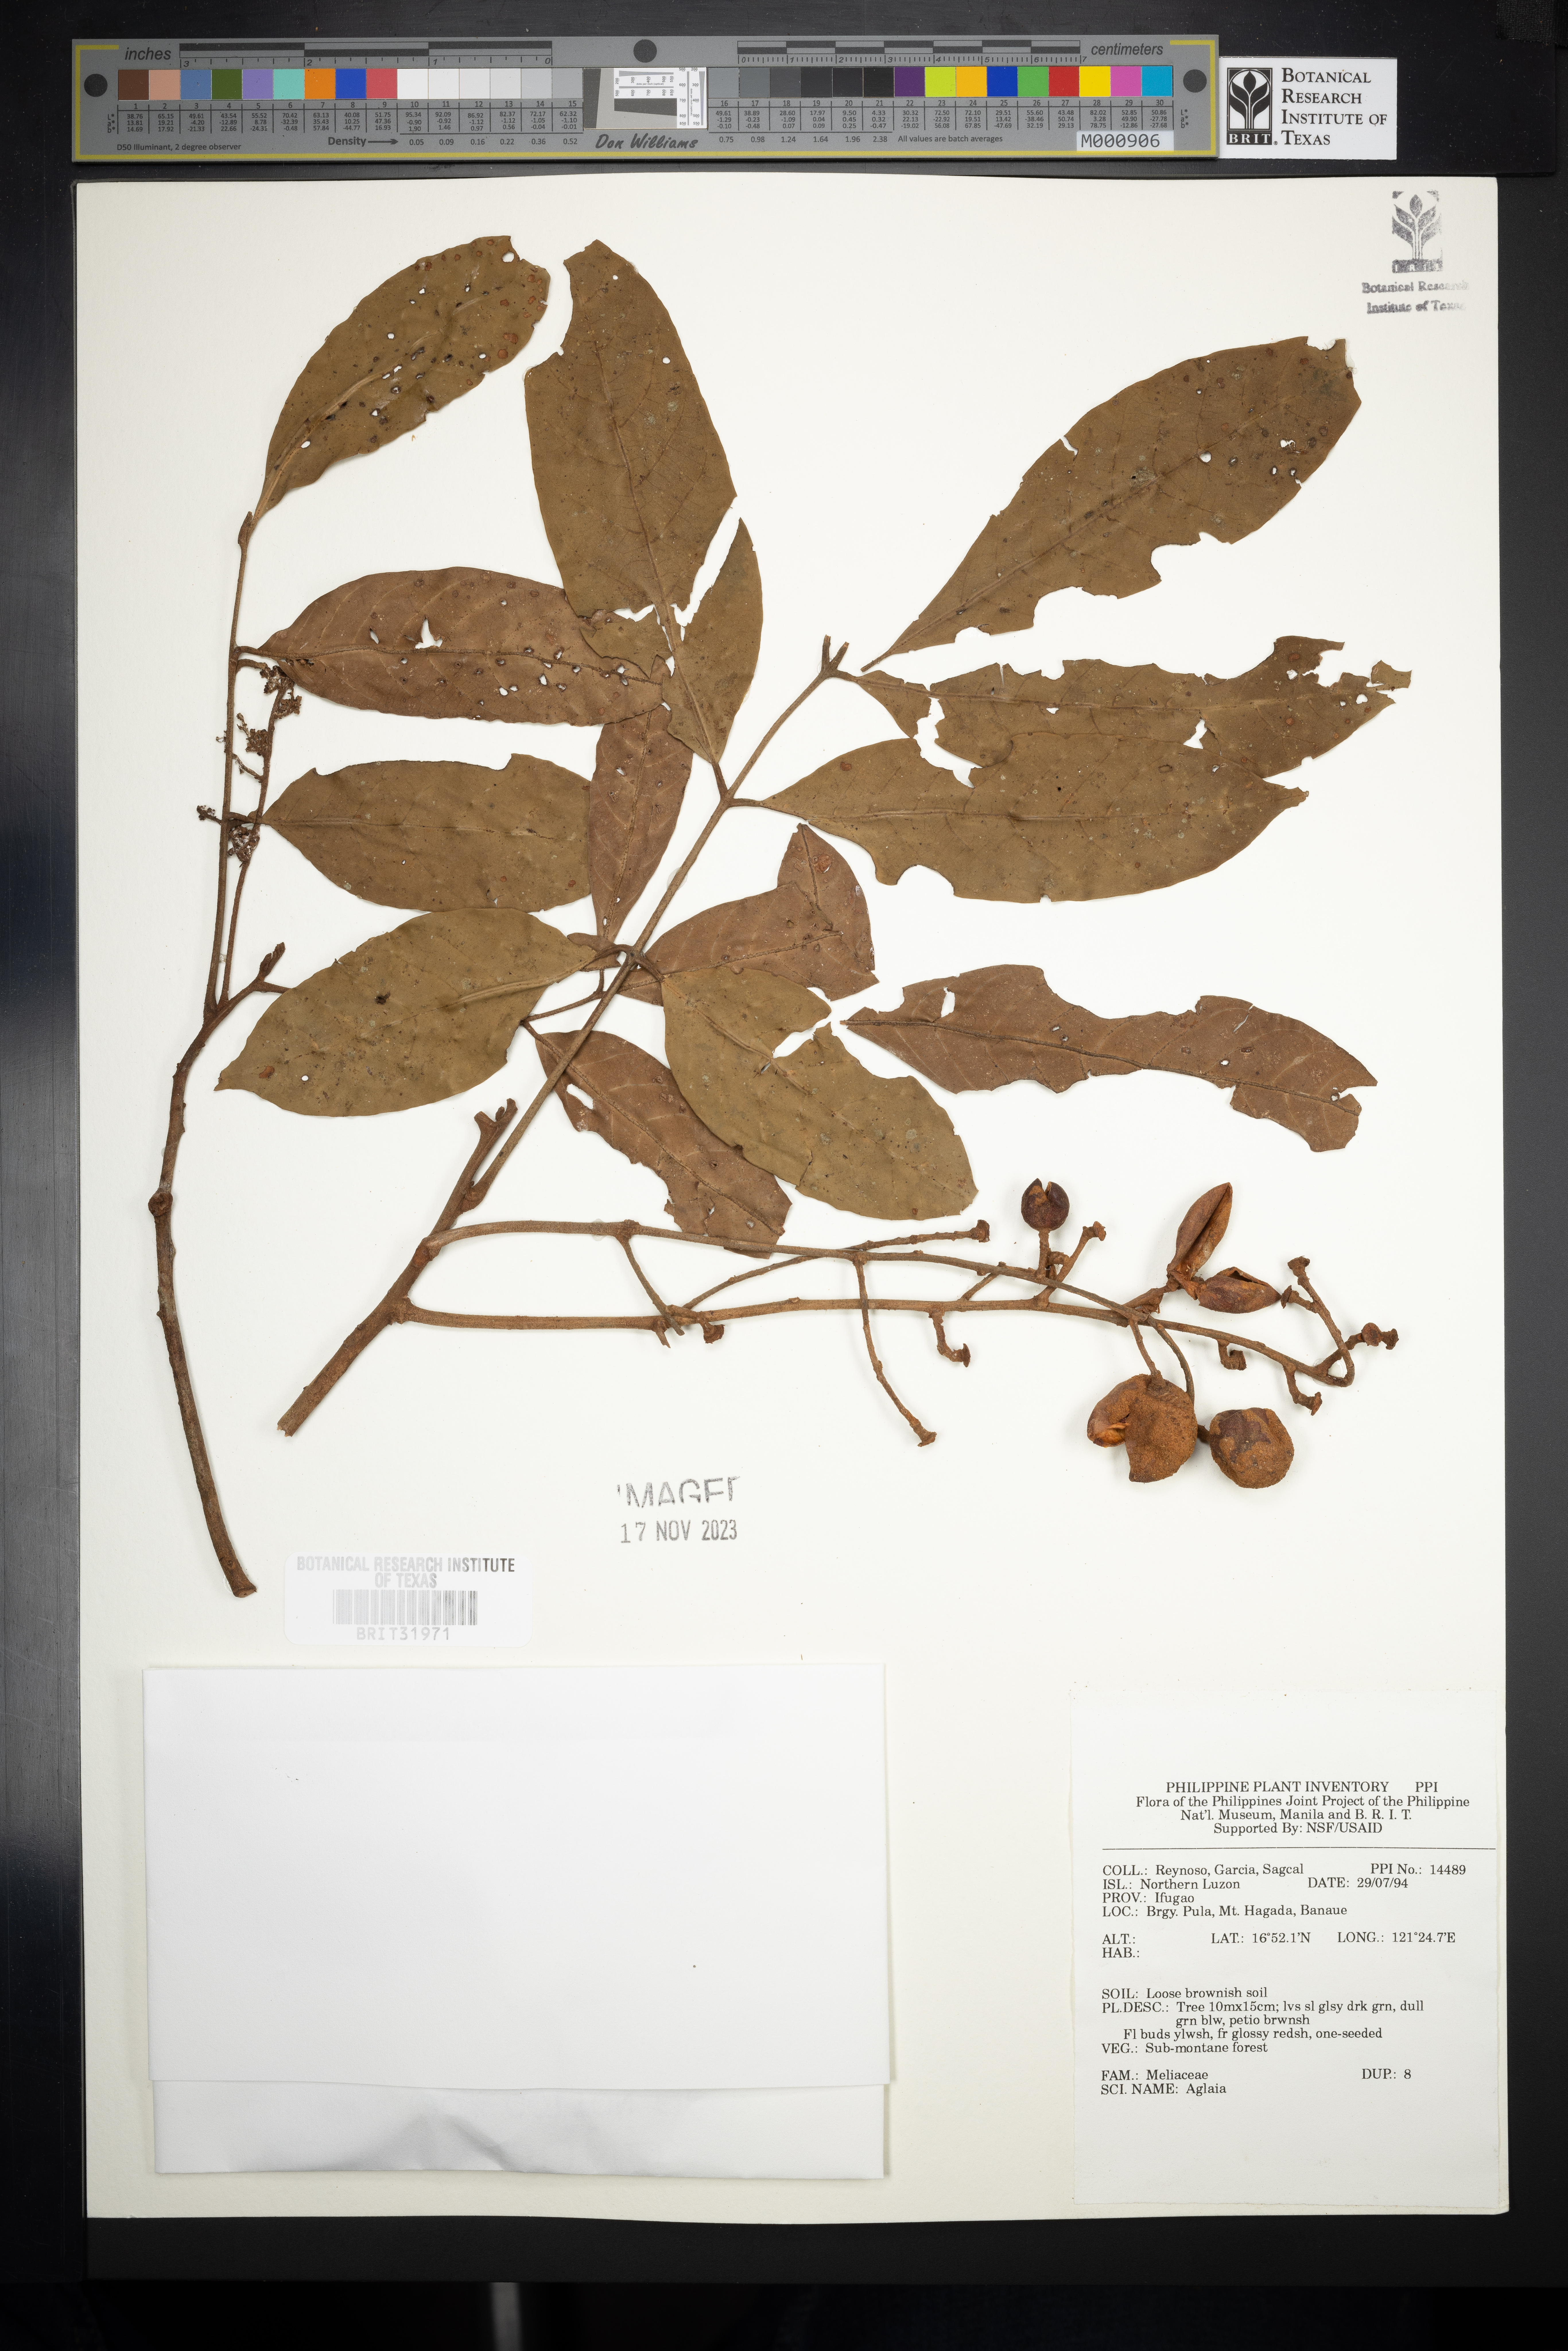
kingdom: Plantae
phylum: Tracheophyta
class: Magnoliopsida
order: Sapindales
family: Meliaceae
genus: Aglaia
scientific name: Aglaia
